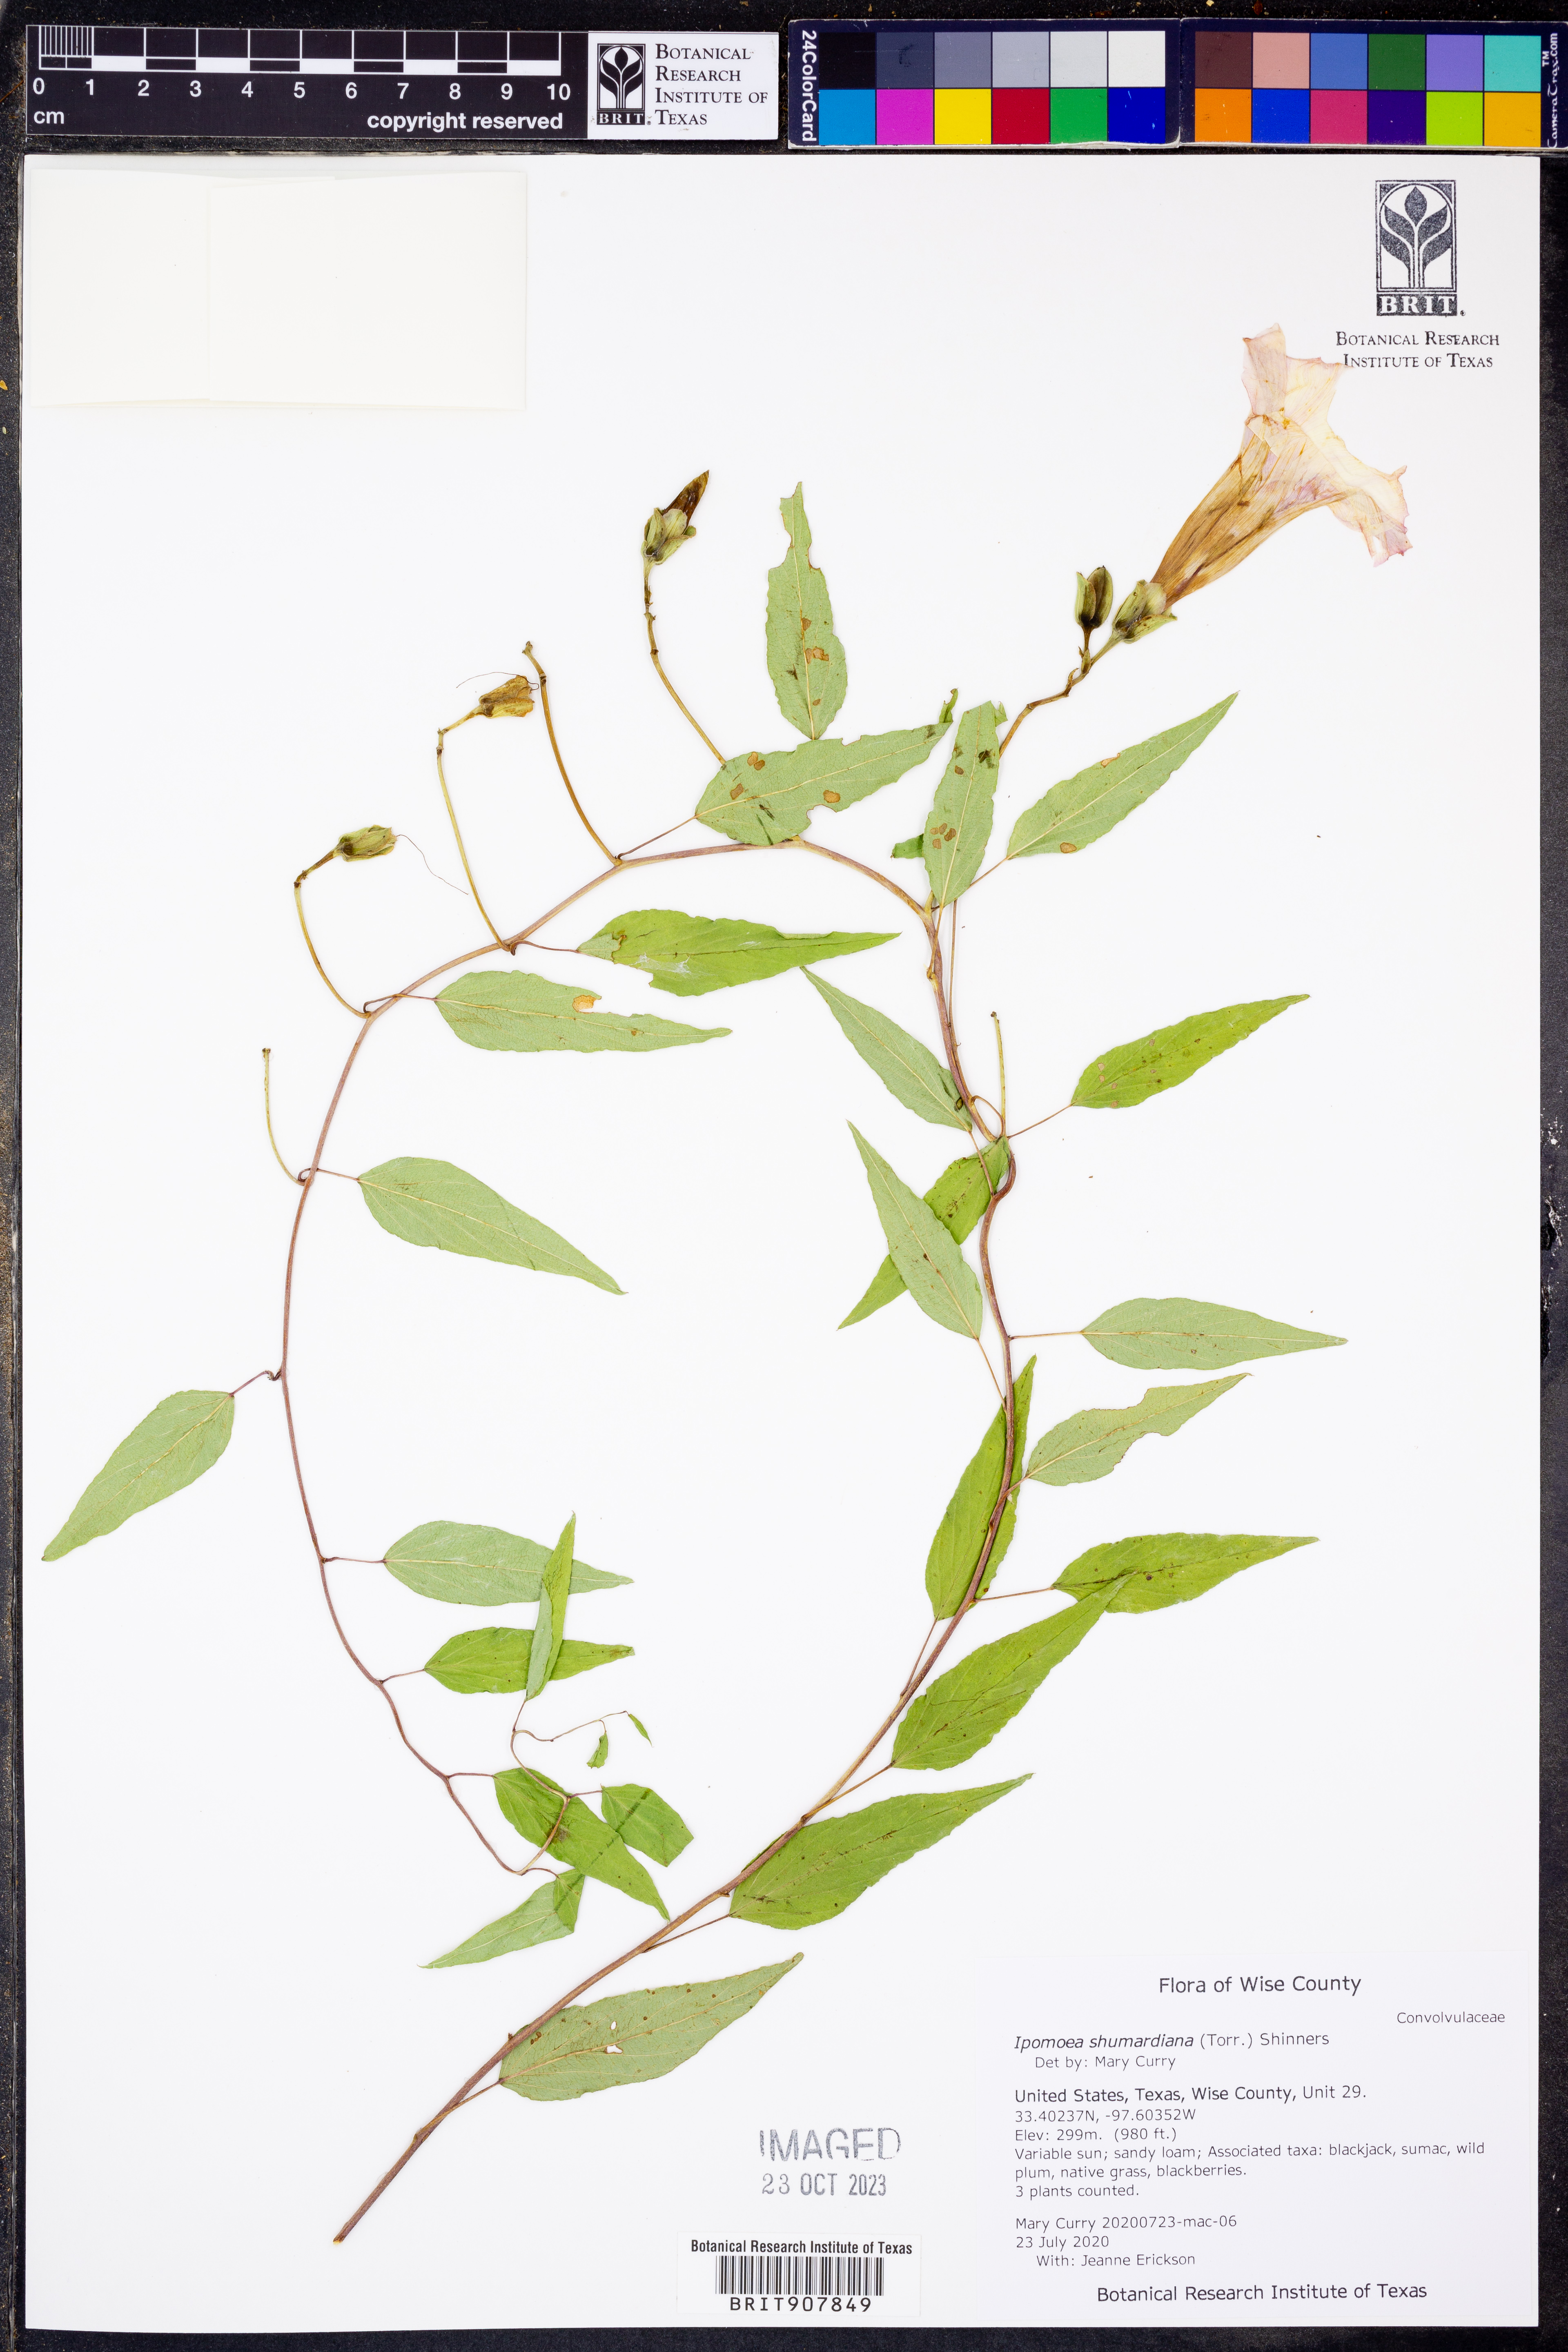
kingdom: Plantae
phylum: Tracheophyta
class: Magnoliopsida
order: Solanales
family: Convolvulaceae
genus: Ipomoea
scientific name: Ipomoea shumardiana
